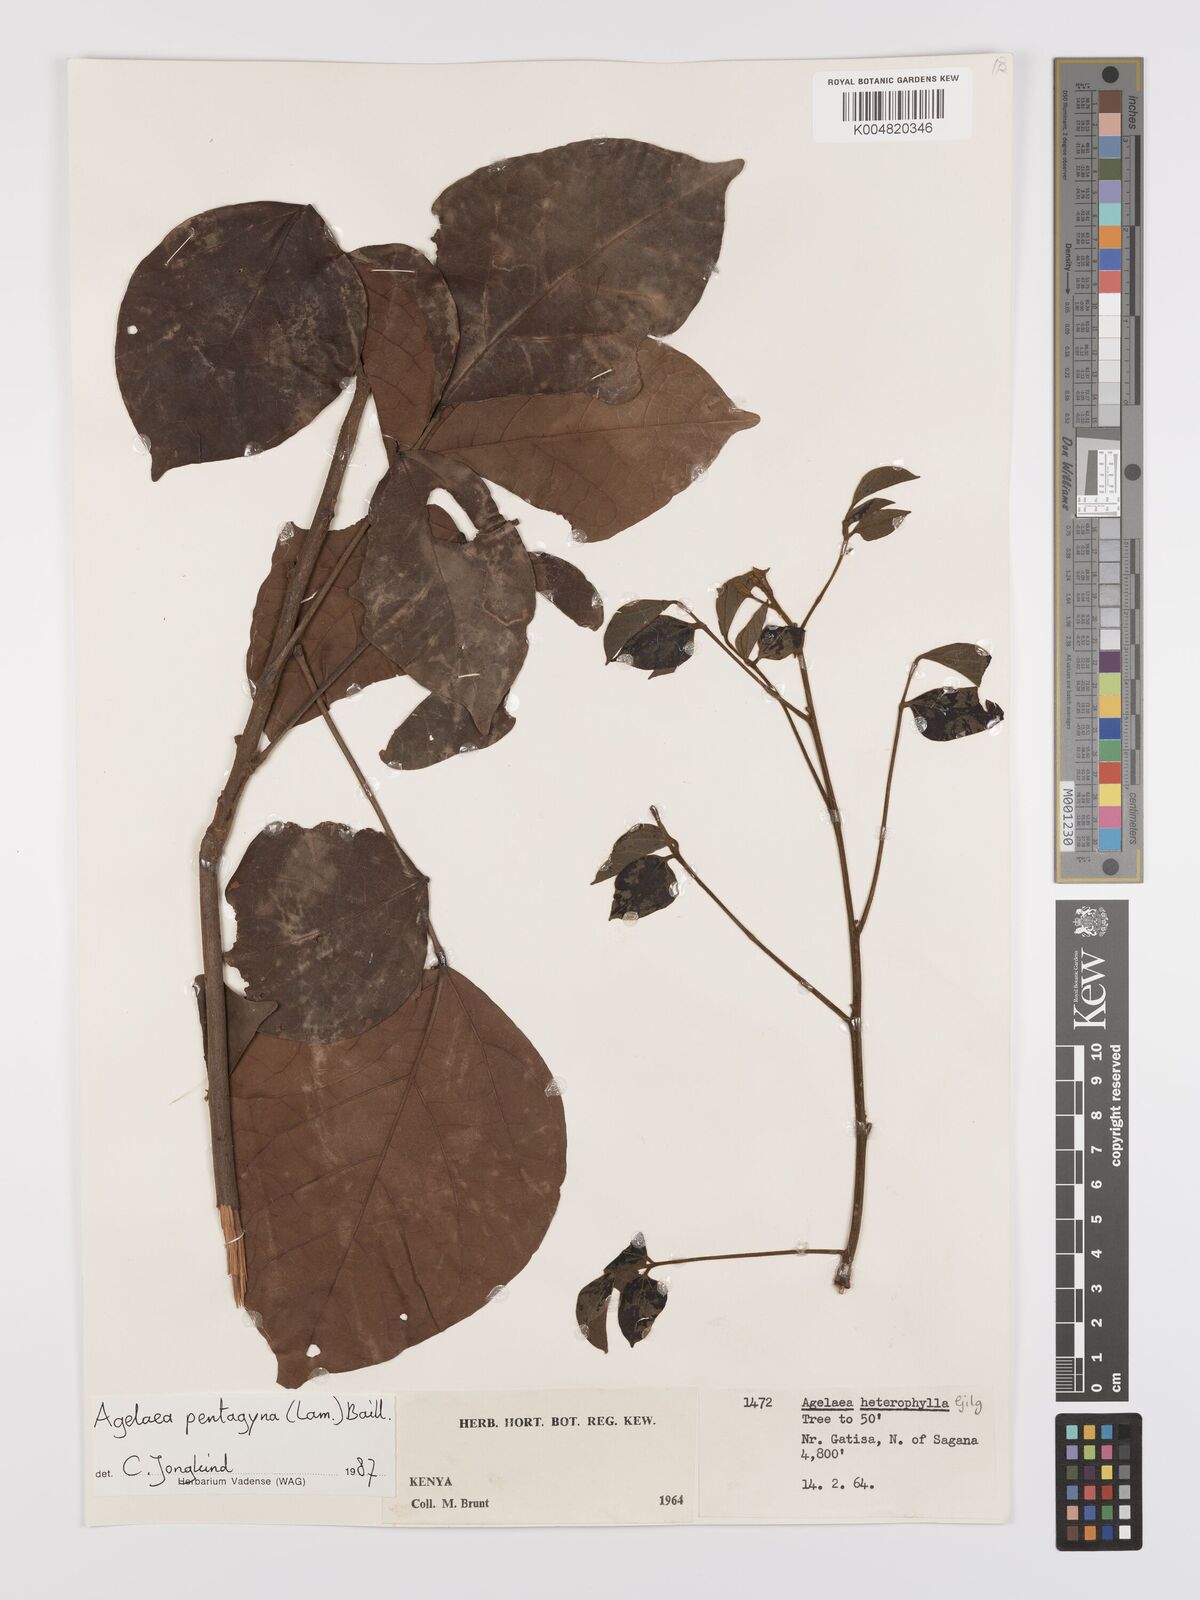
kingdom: Plantae
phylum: Tracheophyta
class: Magnoliopsida
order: Oxalidales
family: Connaraceae
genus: Agelaea
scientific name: Agelaea pentagyna
